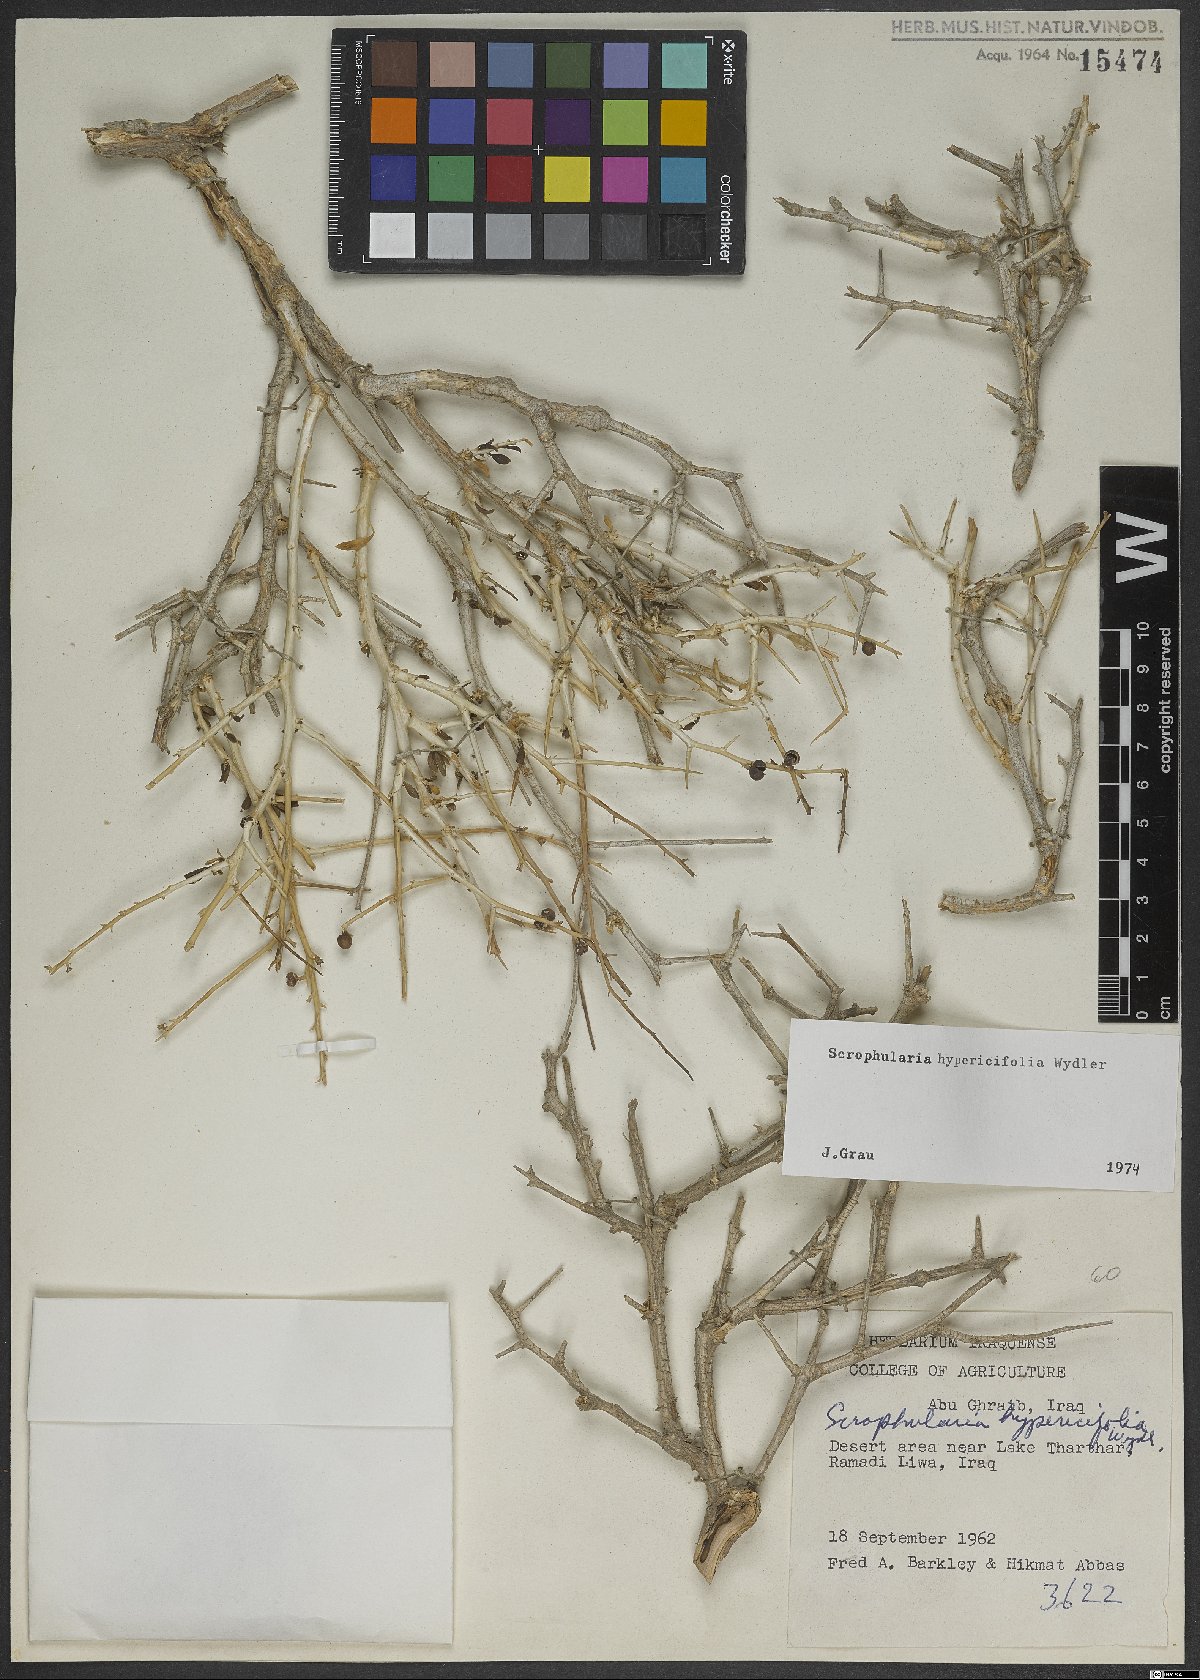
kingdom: Plantae
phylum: Tracheophyta
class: Magnoliopsida
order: Lamiales
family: Scrophulariaceae
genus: Scrophularia
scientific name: Scrophularia hypericifolia
